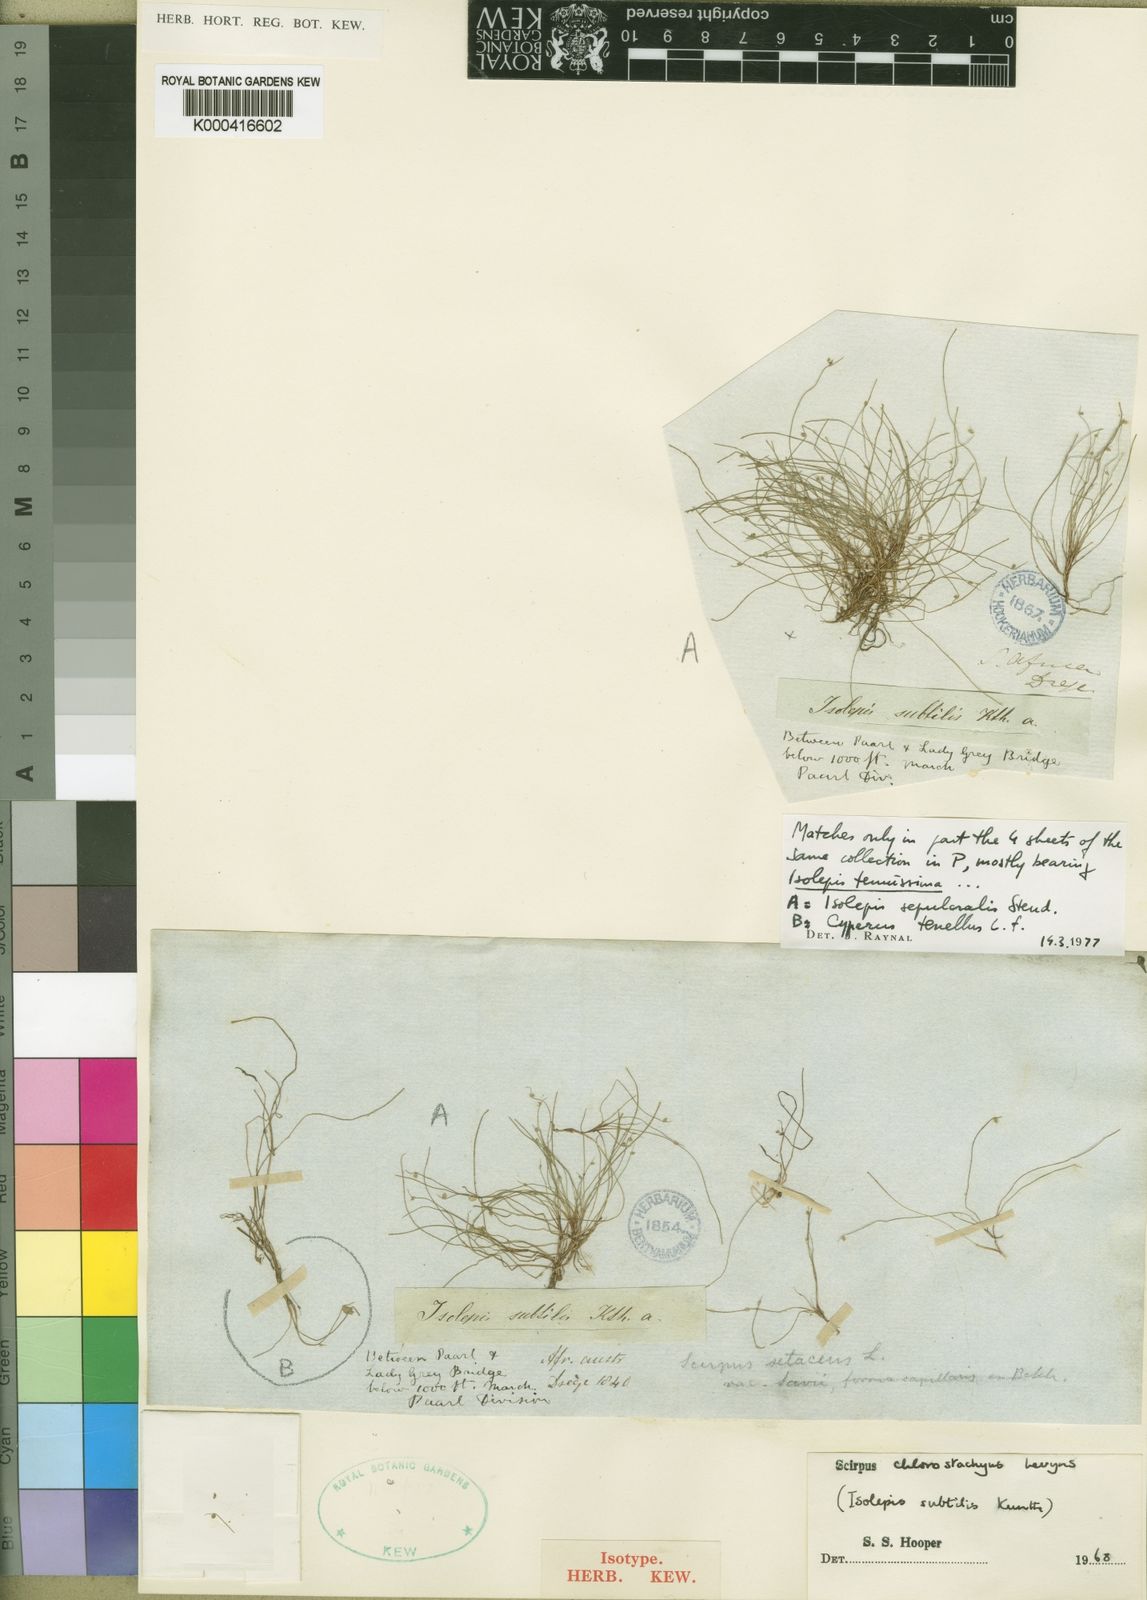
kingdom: Plantae
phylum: Tracheophyta
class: Liliopsida
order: Poales
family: Cyperaceae
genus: Isolepis
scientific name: Isolepis sepulcralis
